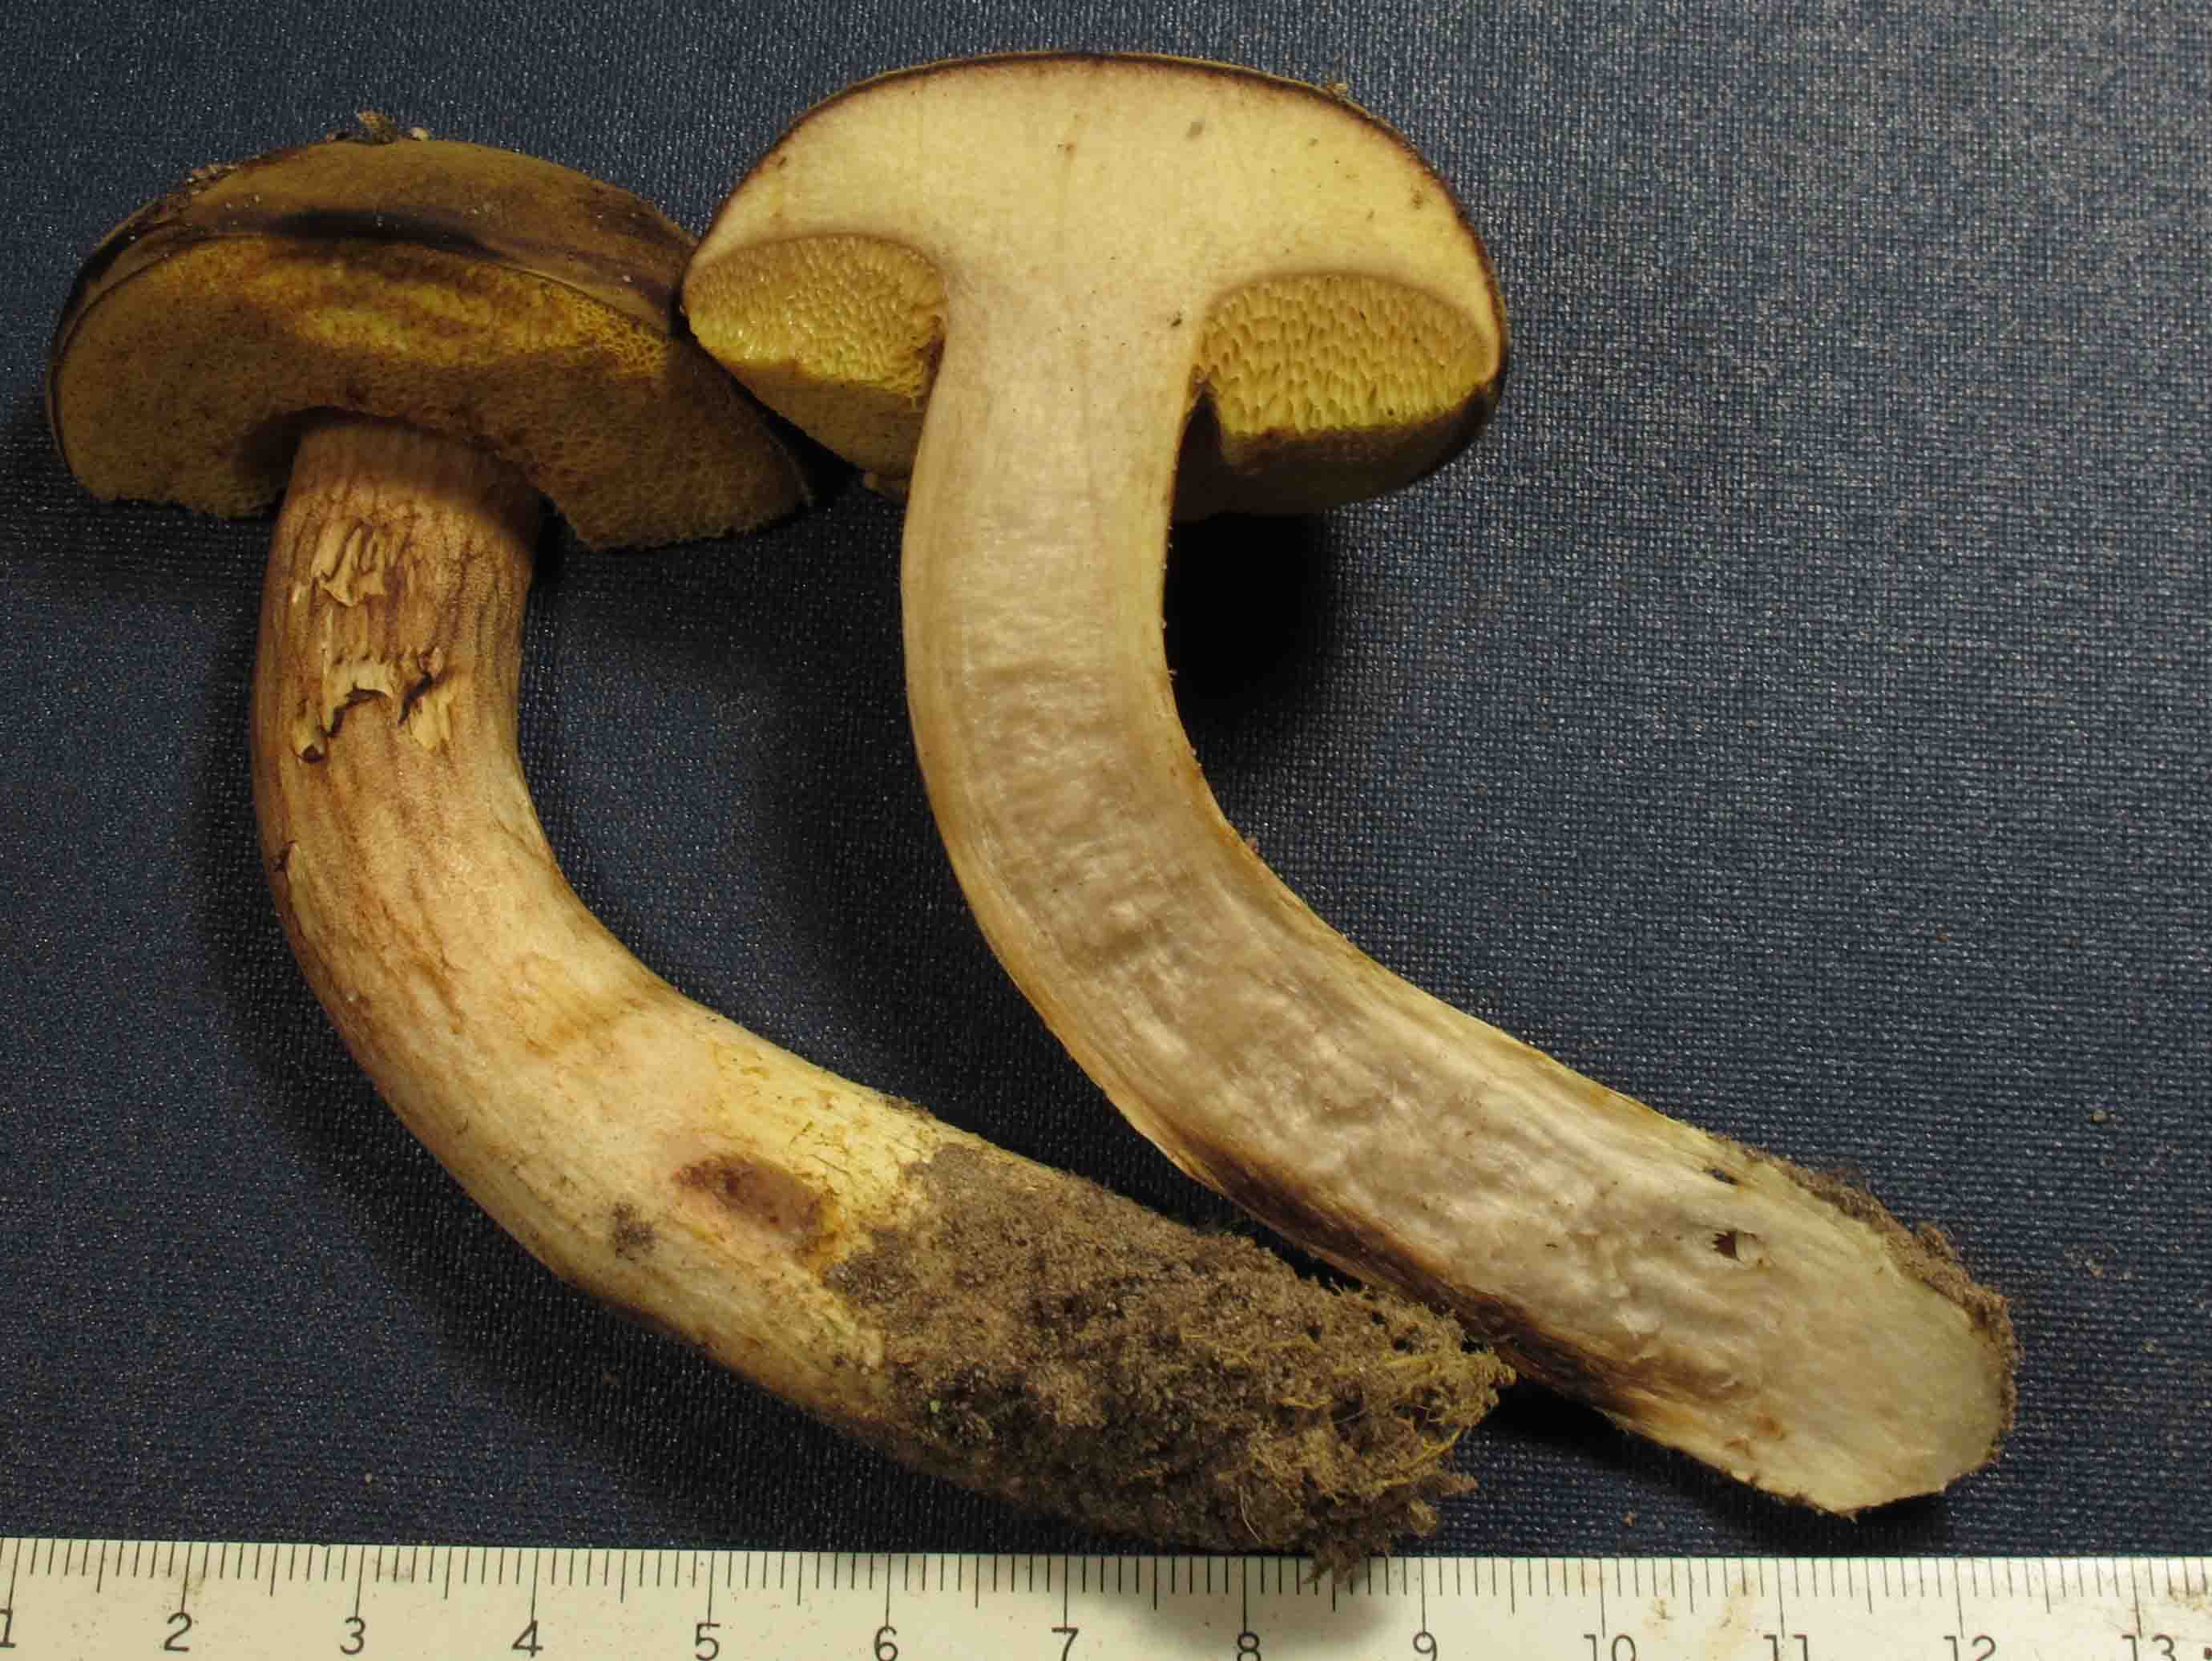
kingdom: Fungi
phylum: Basidiomycota
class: Agaricomycetes
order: Boletales
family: Boletaceae
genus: Xerocomus
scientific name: Xerocomus ferrugineus
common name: vaskeskinds-rørhat
